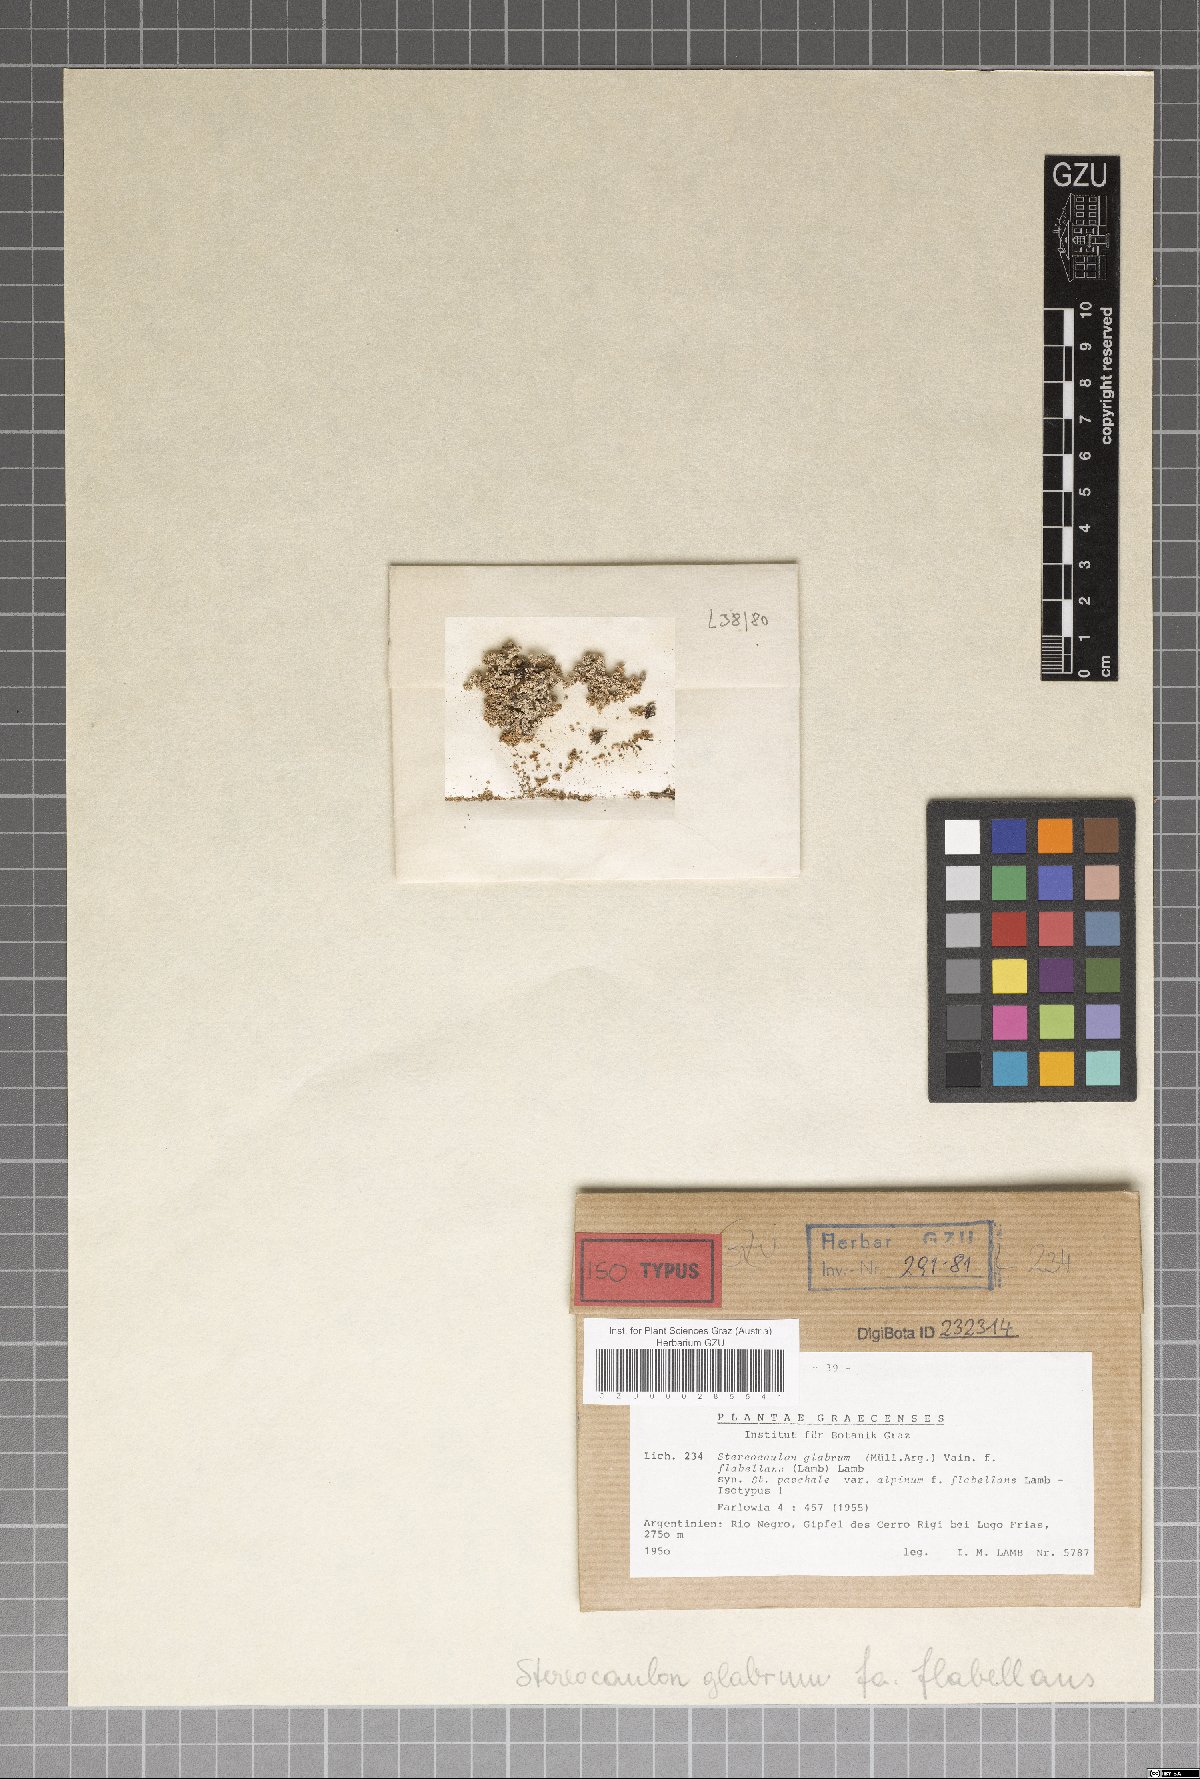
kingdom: Fungi
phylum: Ascomycota
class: Lecanoromycetes
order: Lecanorales
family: Stereocaulaceae
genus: Stereocaulon
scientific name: Stereocaulon paschale
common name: Cottontail foam lichen
